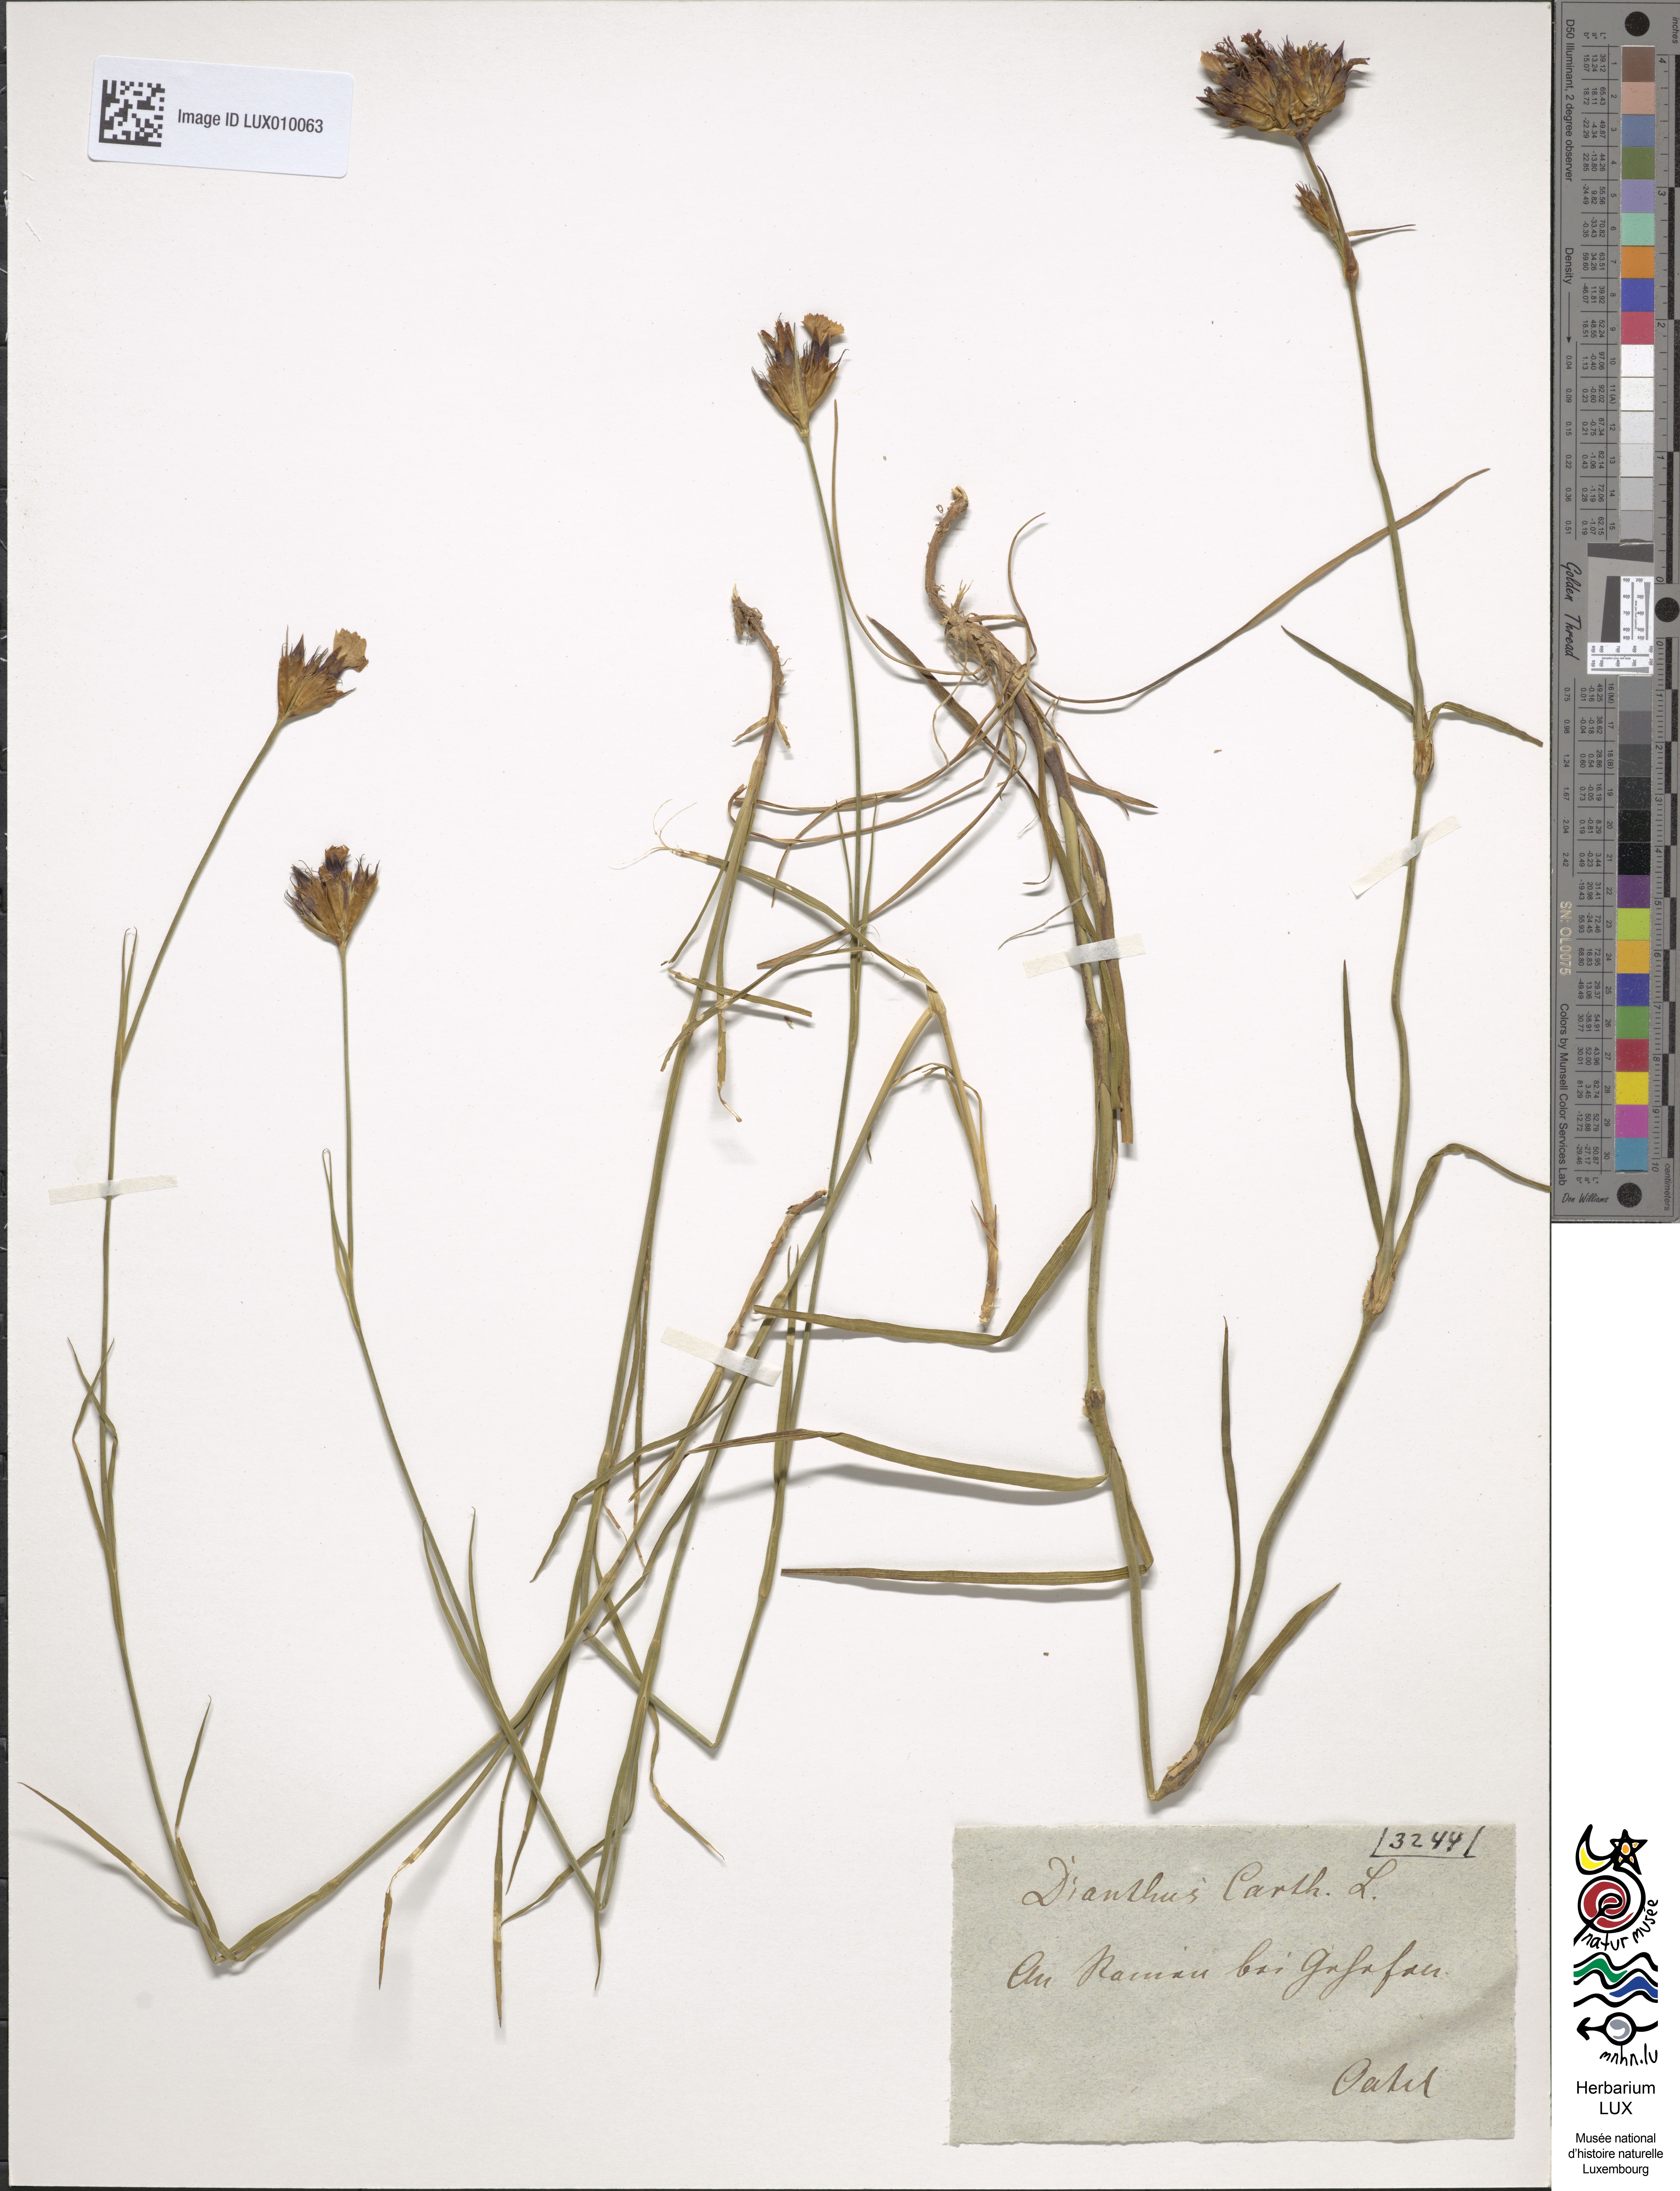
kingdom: Plantae
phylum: Tracheophyta
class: Magnoliopsida
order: Caryophyllales
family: Caryophyllaceae
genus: Dianthus
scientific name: Dianthus carthusianorum
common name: Carthusian pink
